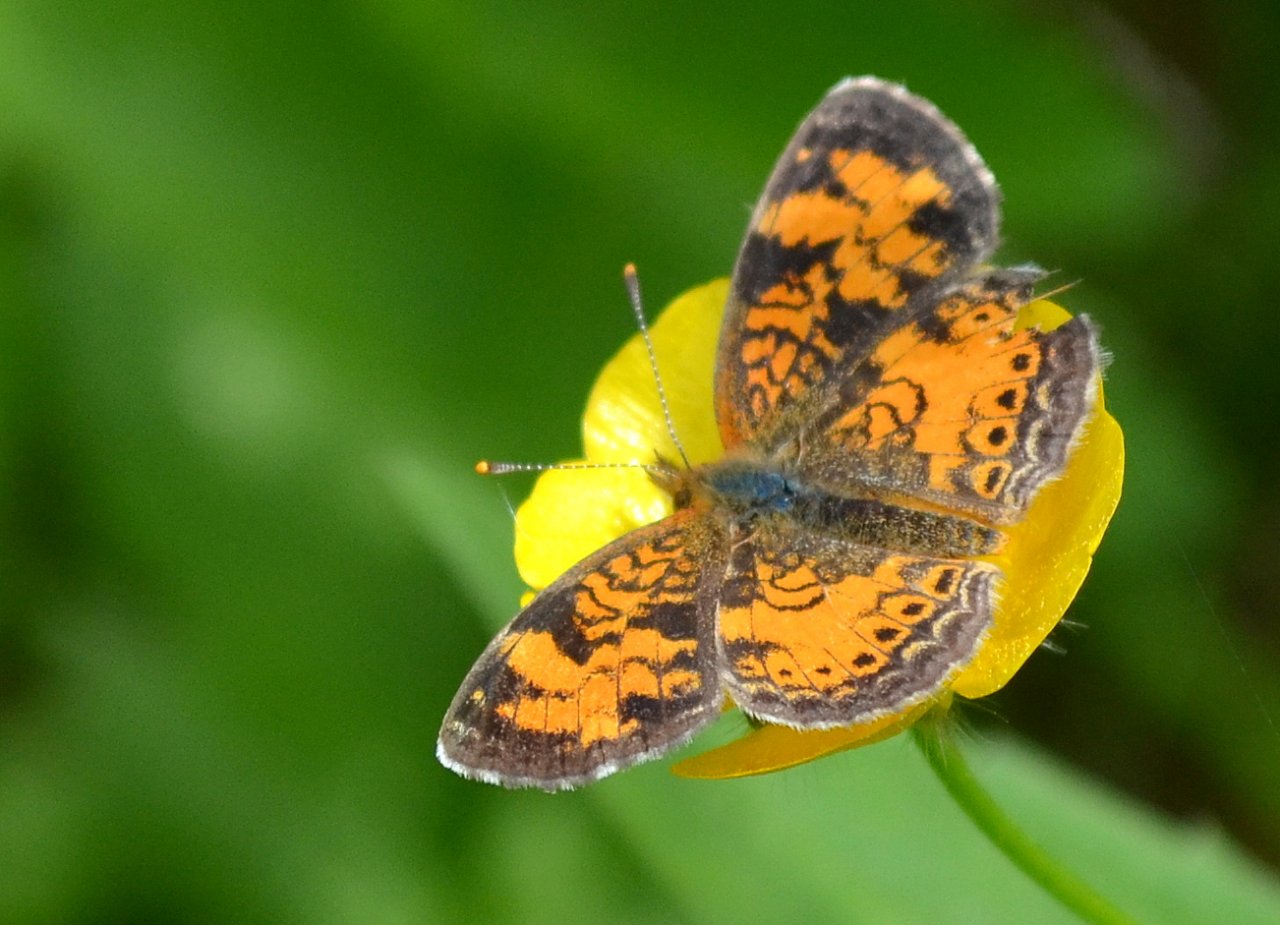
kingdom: Animalia
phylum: Arthropoda
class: Insecta
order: Lepidoptera
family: Nymphalidae
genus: Phyciodes
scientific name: Phyciodes tharos
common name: Northern Crescent
